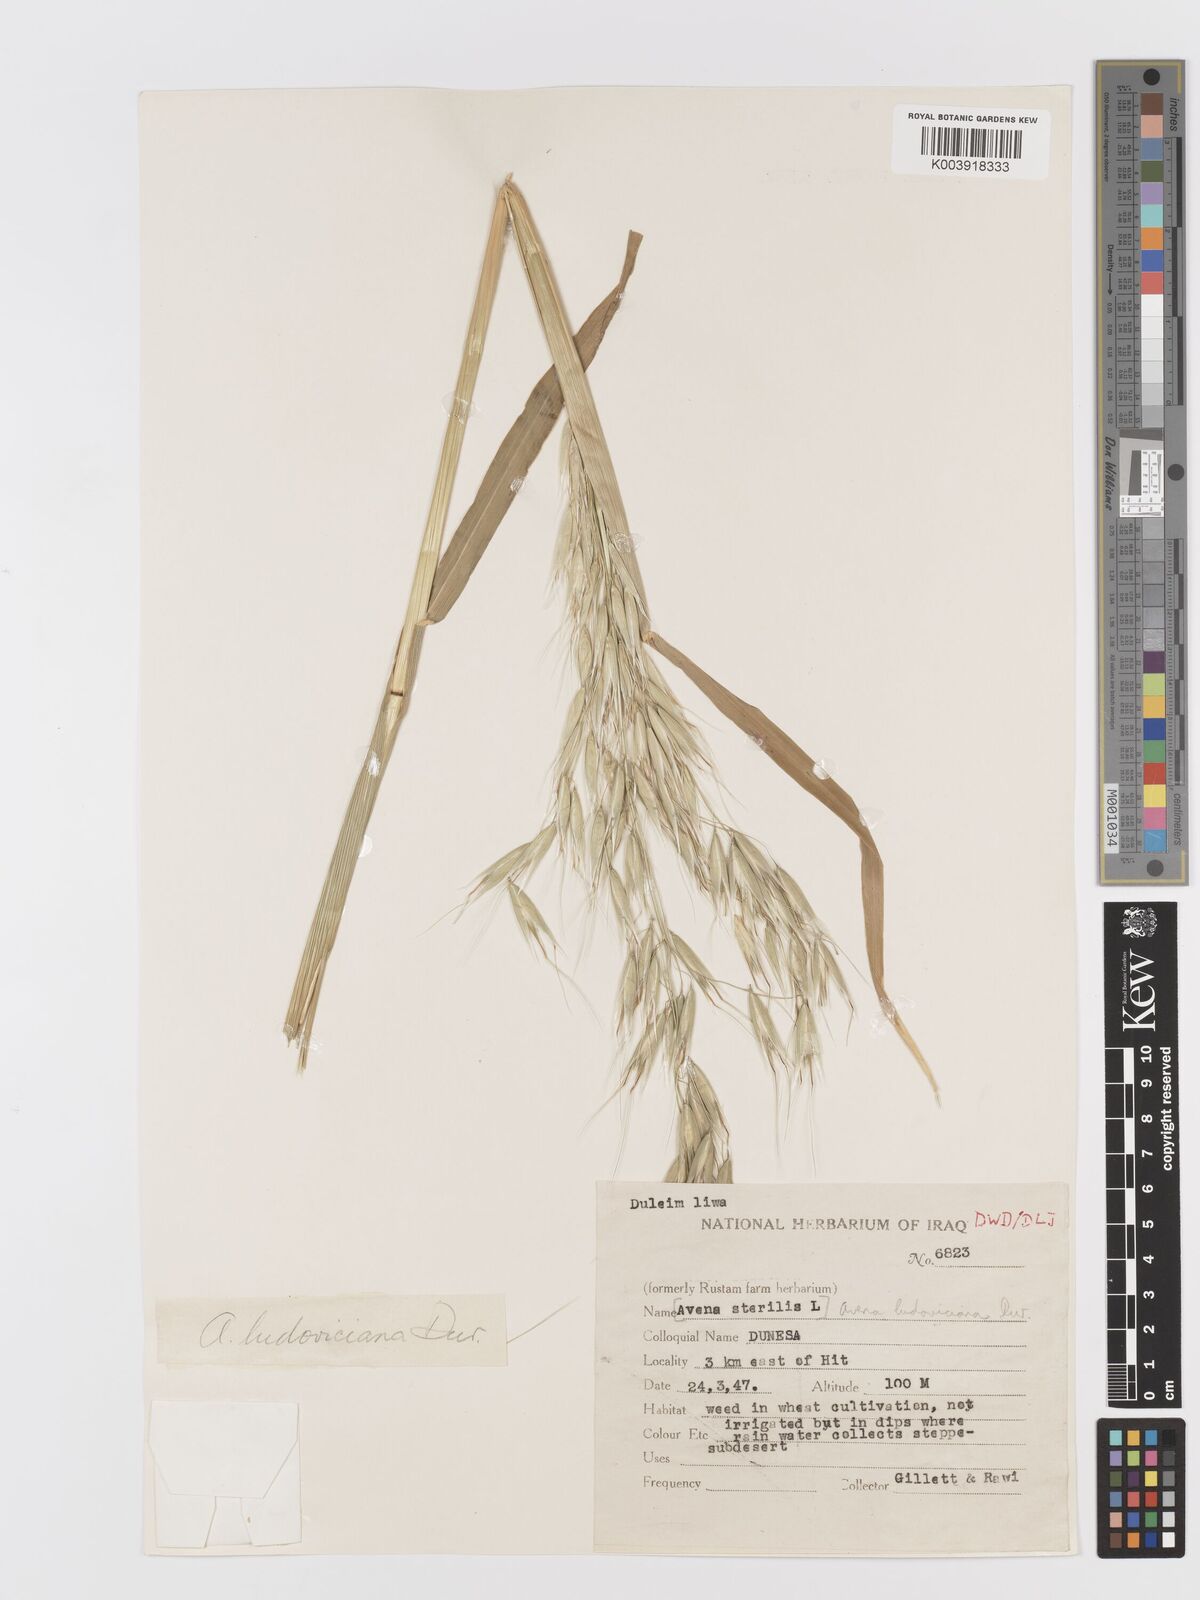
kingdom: Plantae
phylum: Tracheophyta
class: Liliopsida
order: Poales
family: Poaceae
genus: Avena
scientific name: Avena sterilis
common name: Animated oat
